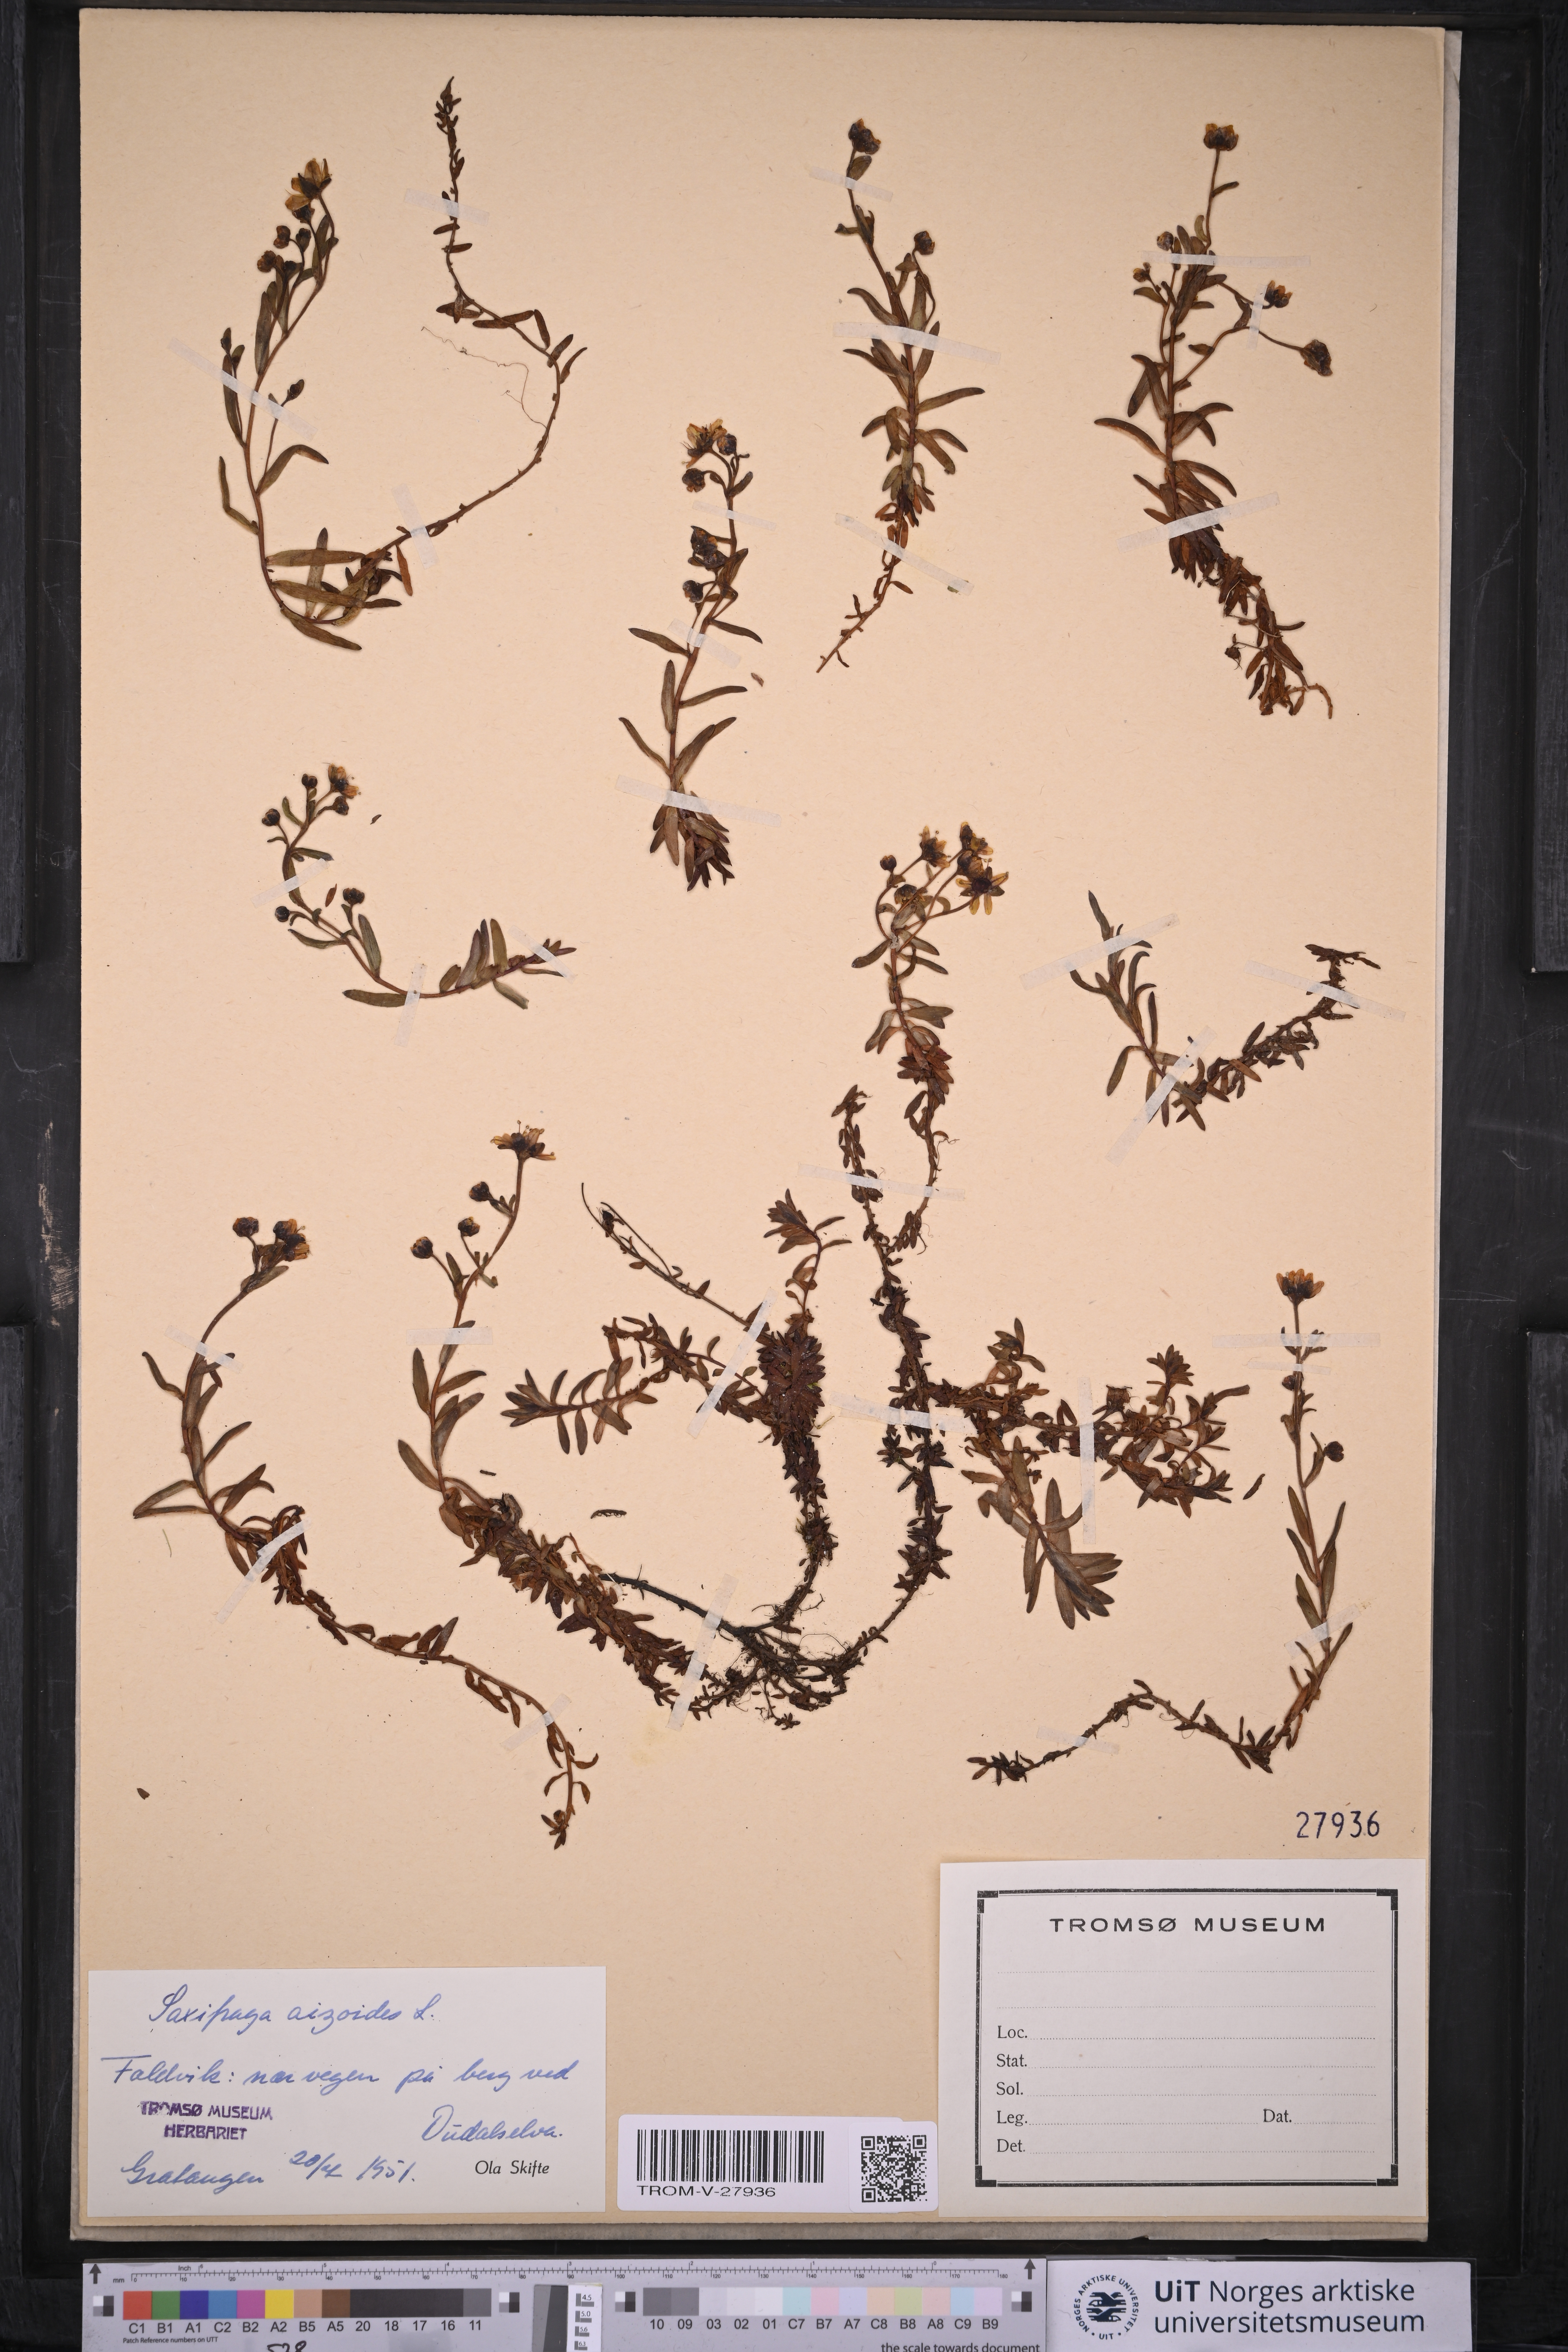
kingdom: Plantae
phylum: Tracheophyta
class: Magnoliopsida
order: Saxifragales
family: Saxifragaceae
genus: Saxifraga
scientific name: Saxifraga aizoides
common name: Yellow mountain saxifrage
